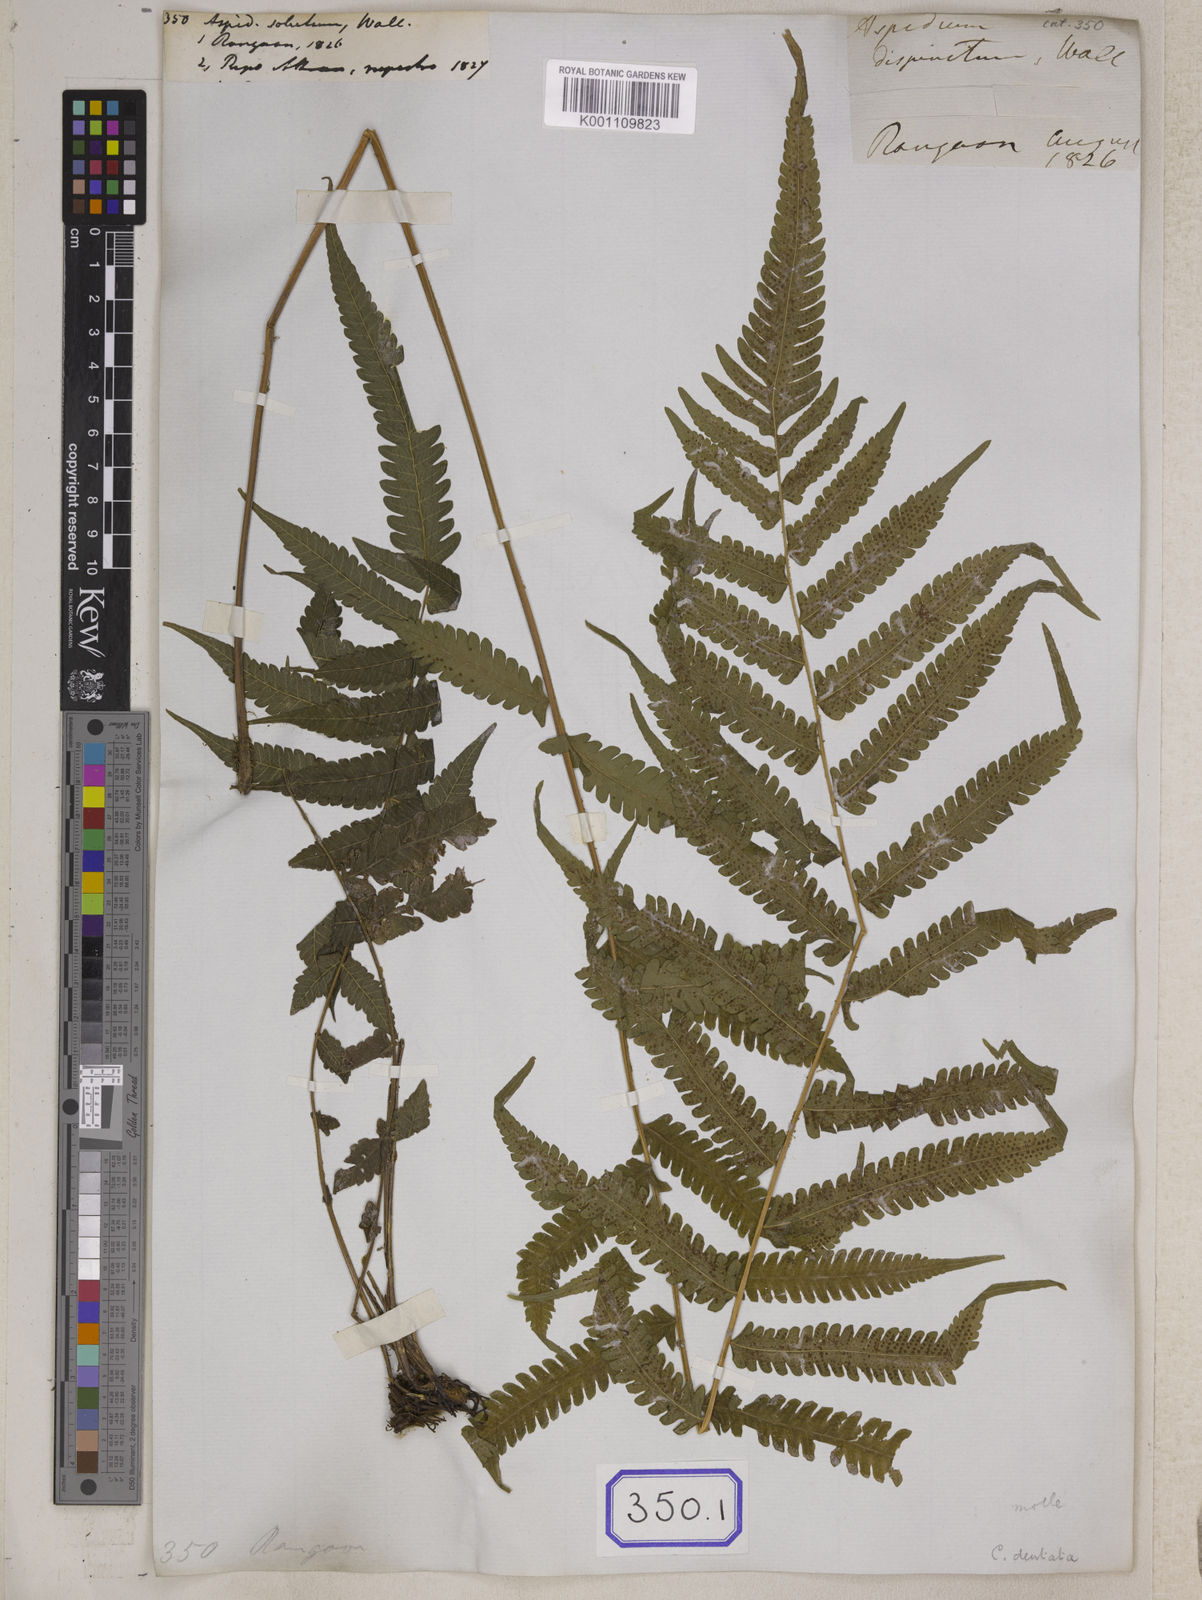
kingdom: Plantae
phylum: Tracheophyta
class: Polypodiopsida
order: Polypodiales
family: Thelypteridaceae
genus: Christella
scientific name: Christella parasitica
